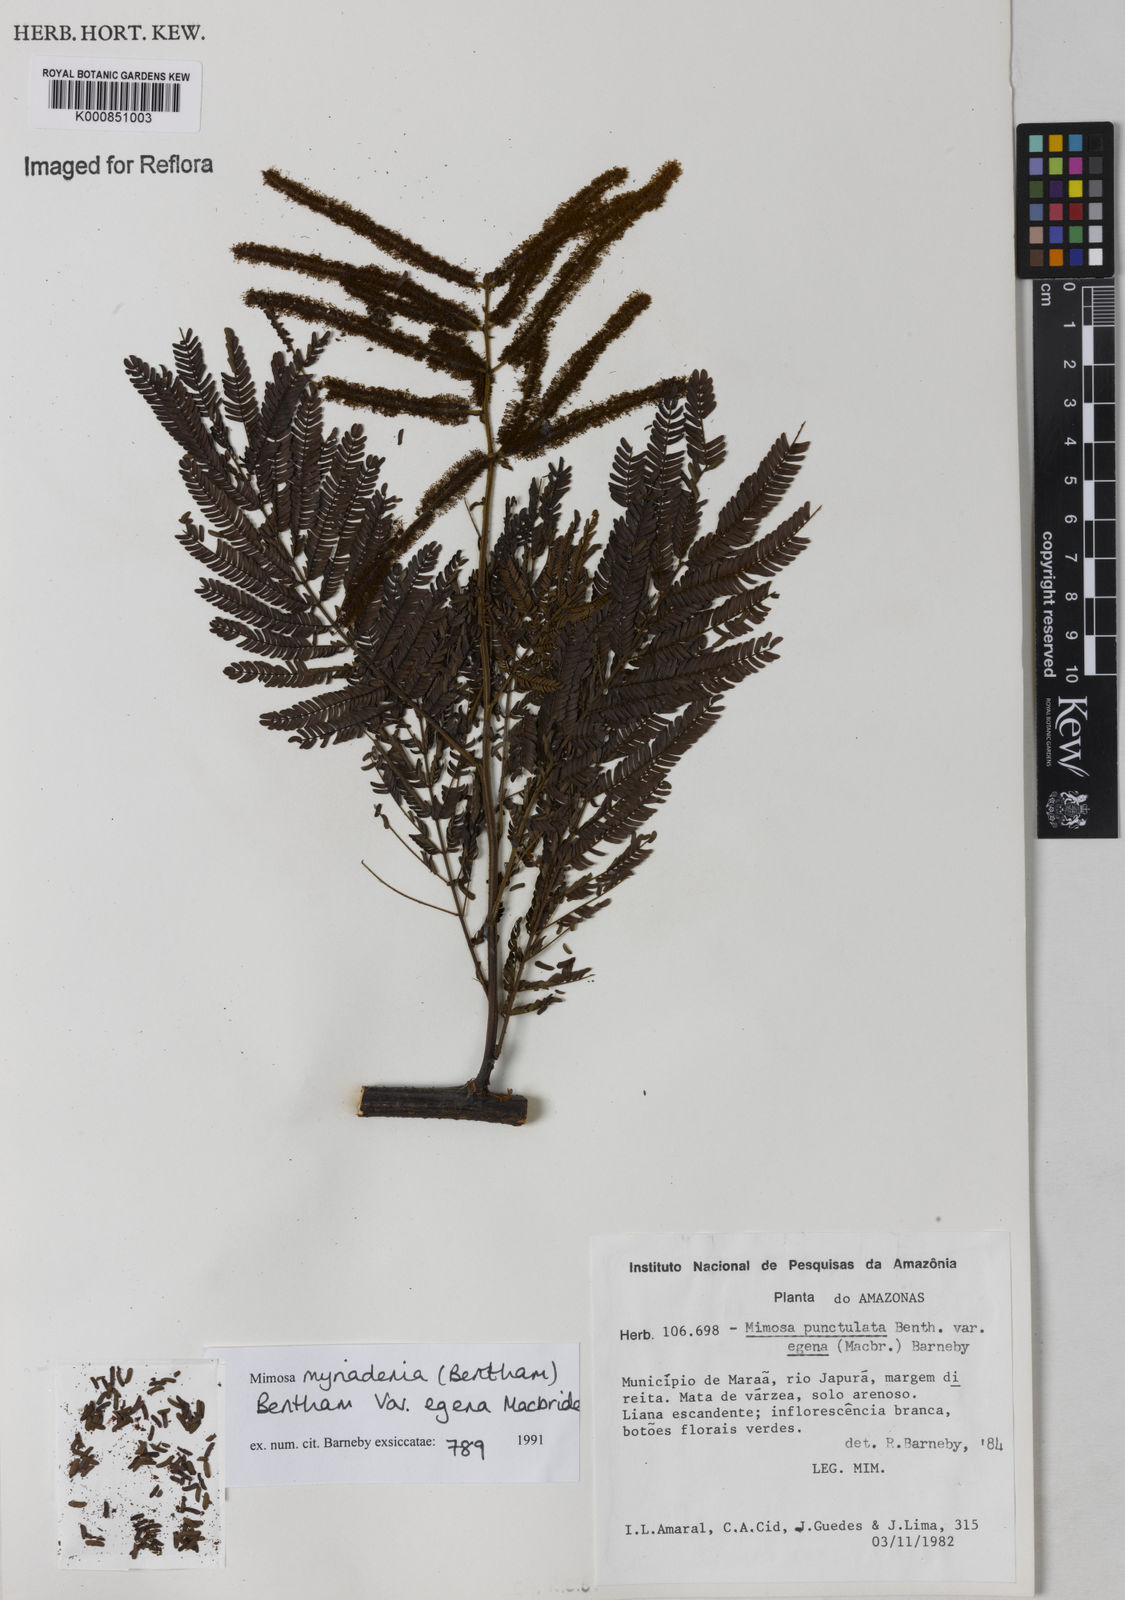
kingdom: Plantae
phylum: Tracheophyta
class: Magnoliopsida
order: Fabales
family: Fabaceae
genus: Mimosa
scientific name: Mimosa myriadenia
